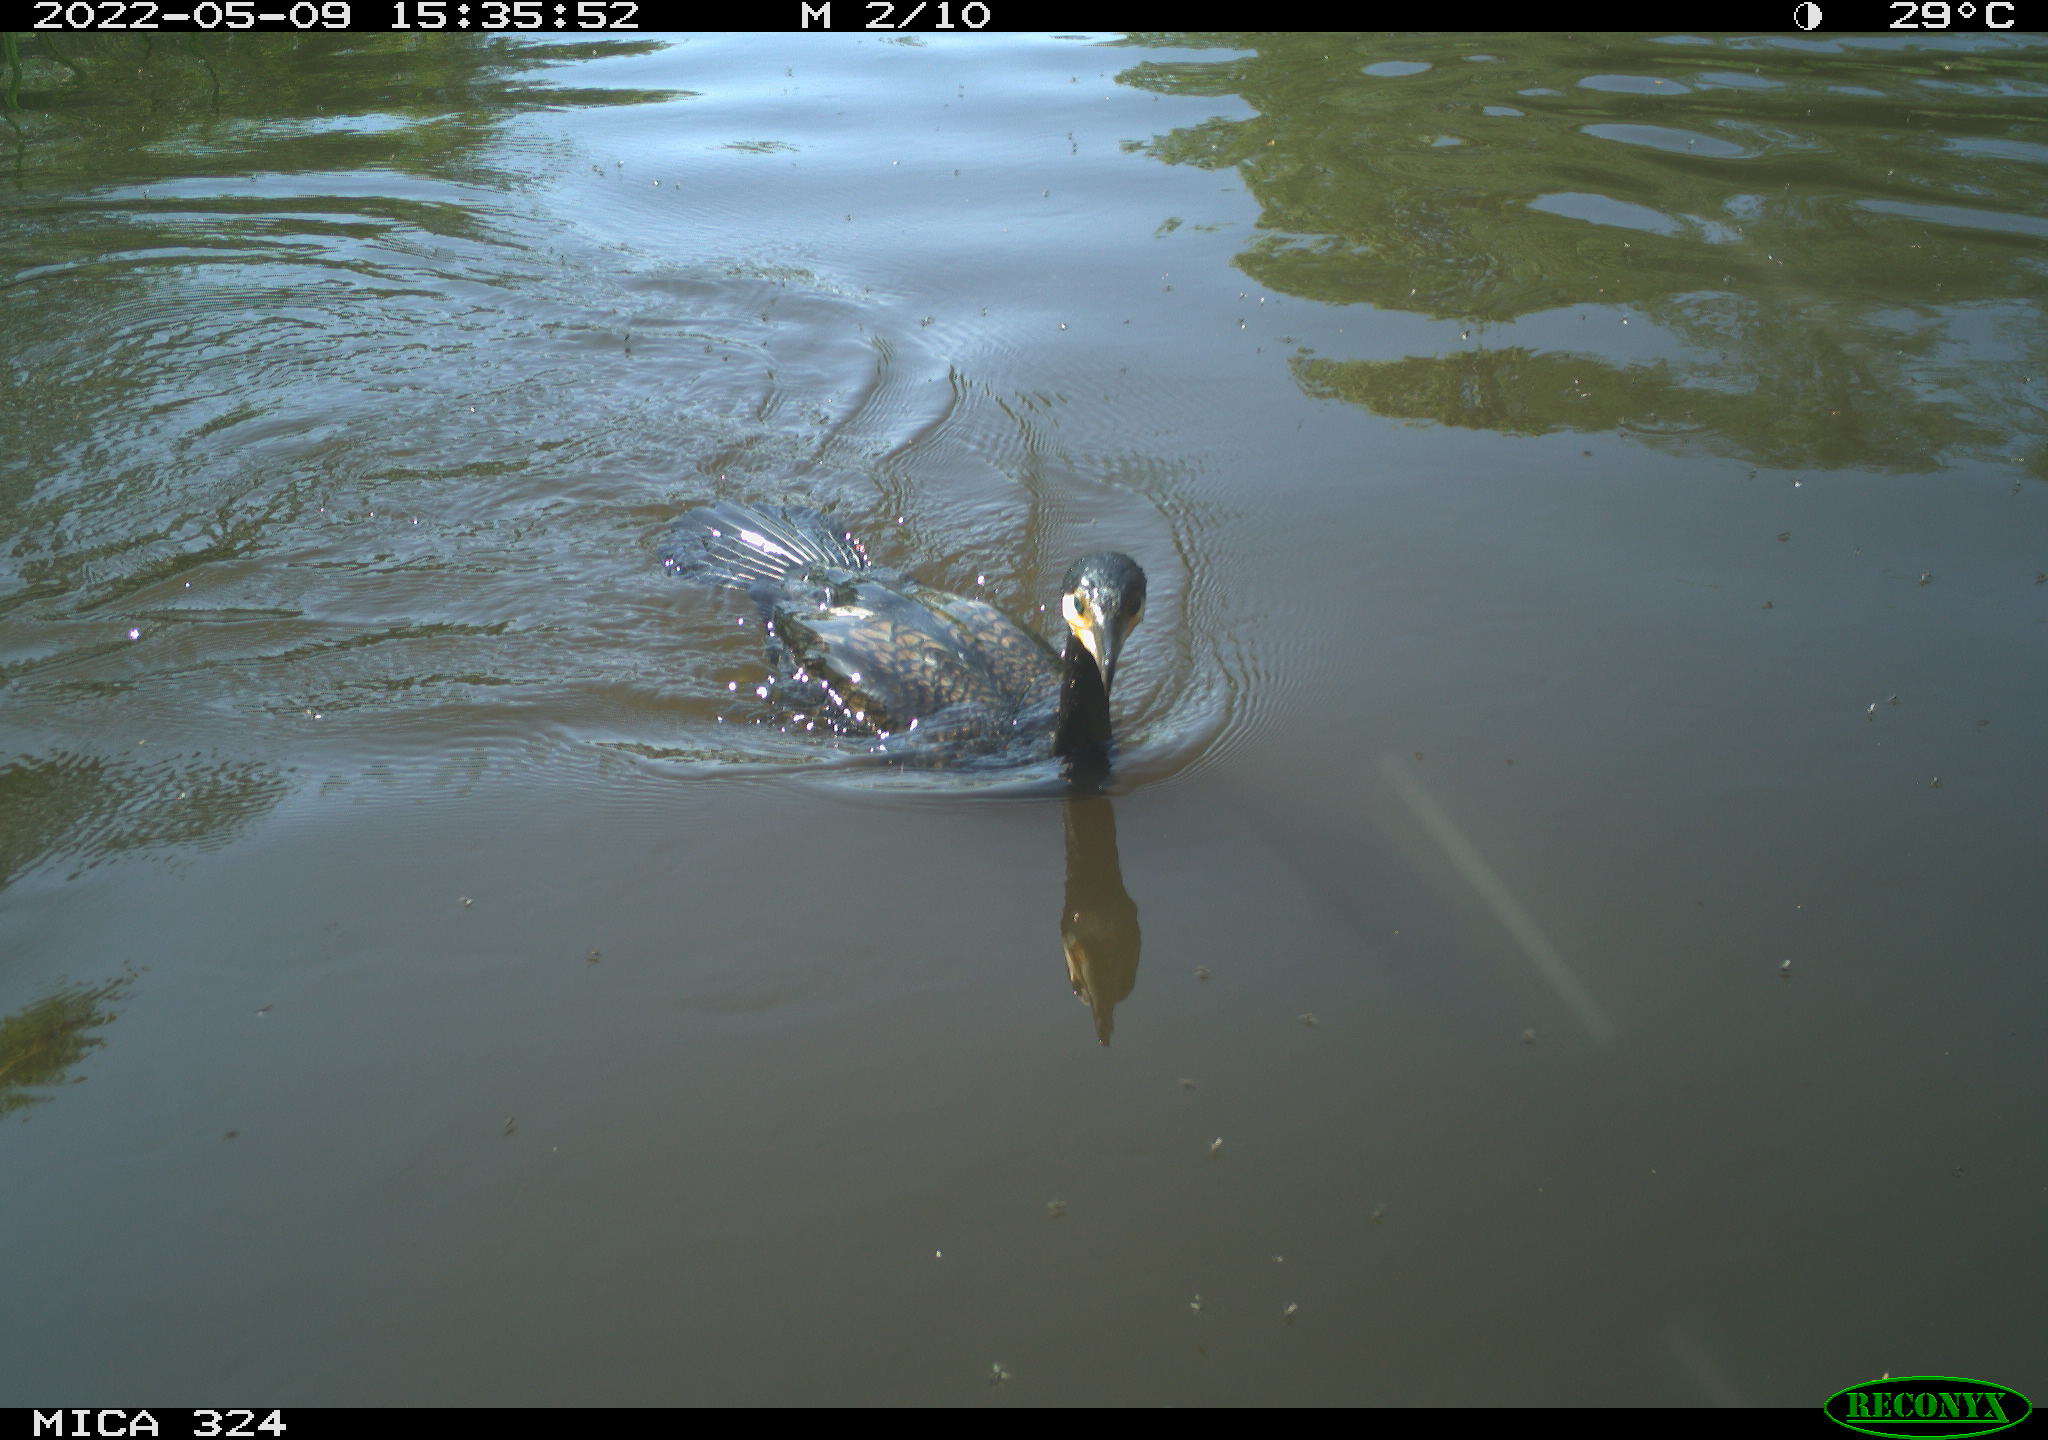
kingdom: Animalia
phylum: Chordata
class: Aves
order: Suliformes
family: Phalacrocoracidae
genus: Phalacrocorax
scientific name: Phalacrocorax carbo
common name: Great cormorant
